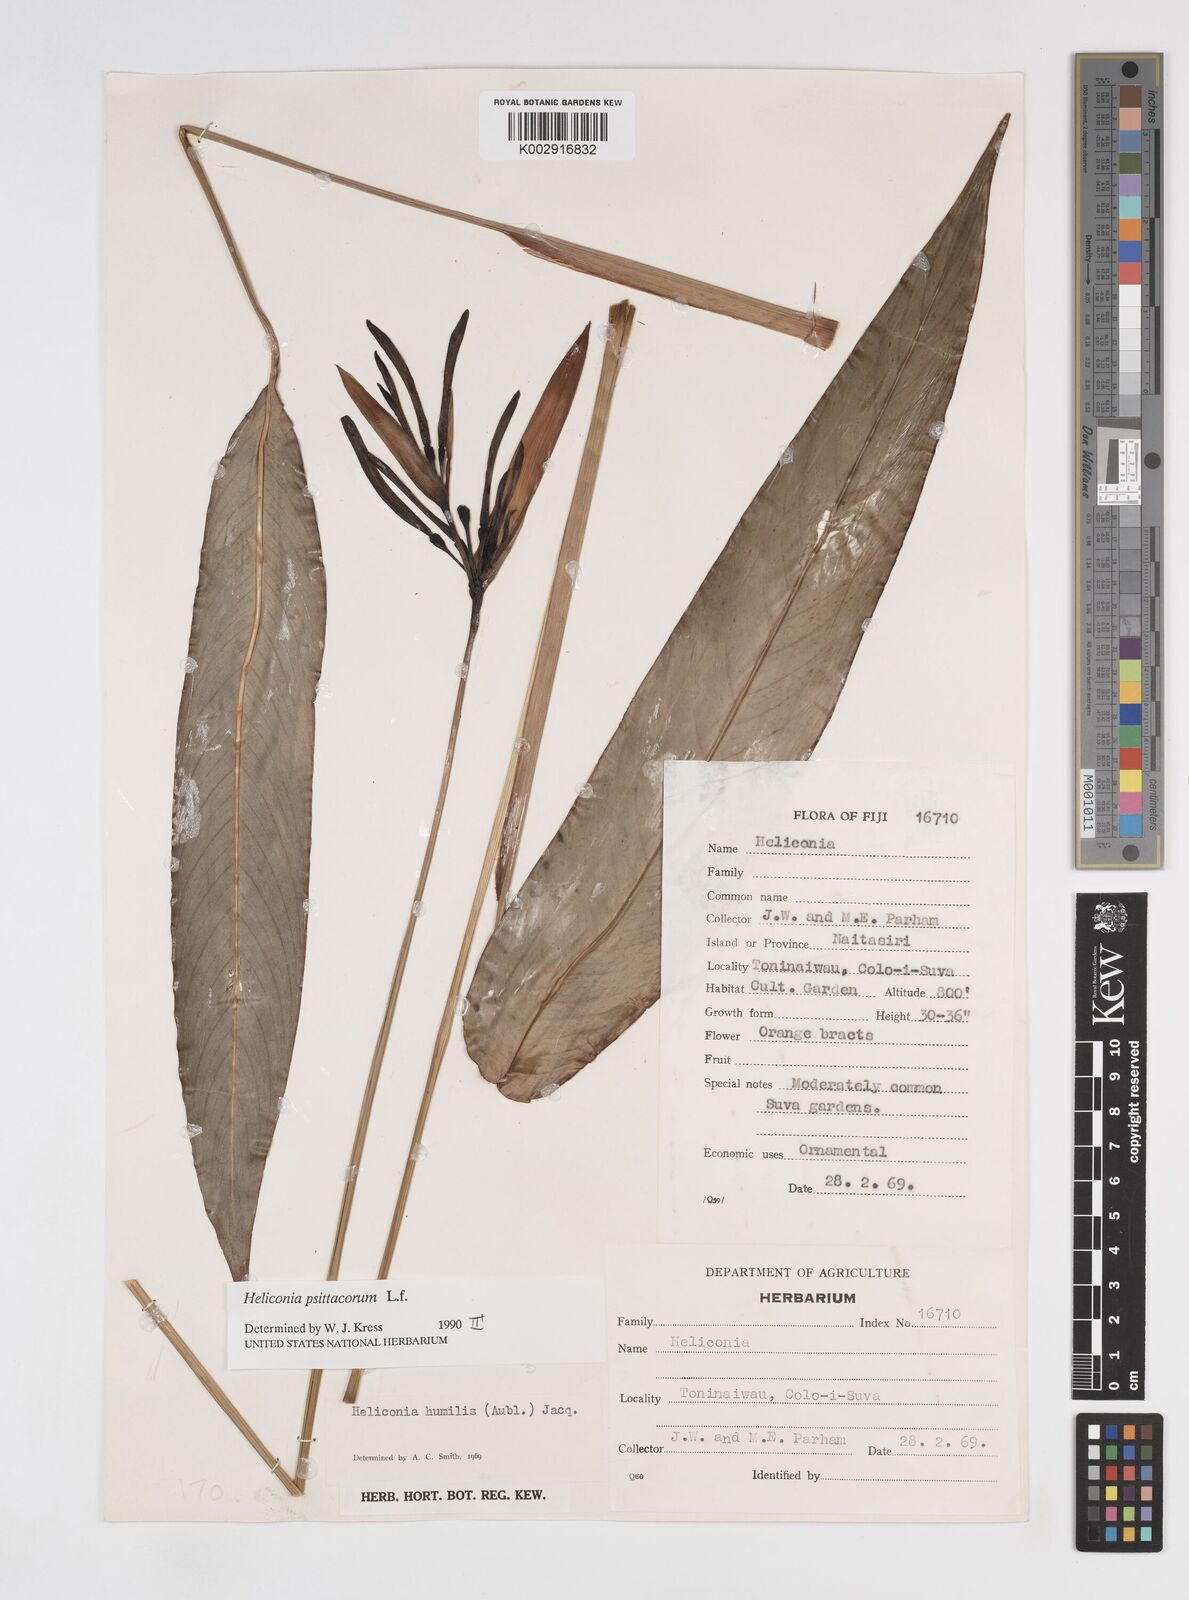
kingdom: Plantae
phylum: Tracheophyta
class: Liliopsida
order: Zingiberales
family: Heliconiaceae
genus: Heliconia
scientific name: Heliconia psittacorum
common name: Parrot's-flower
